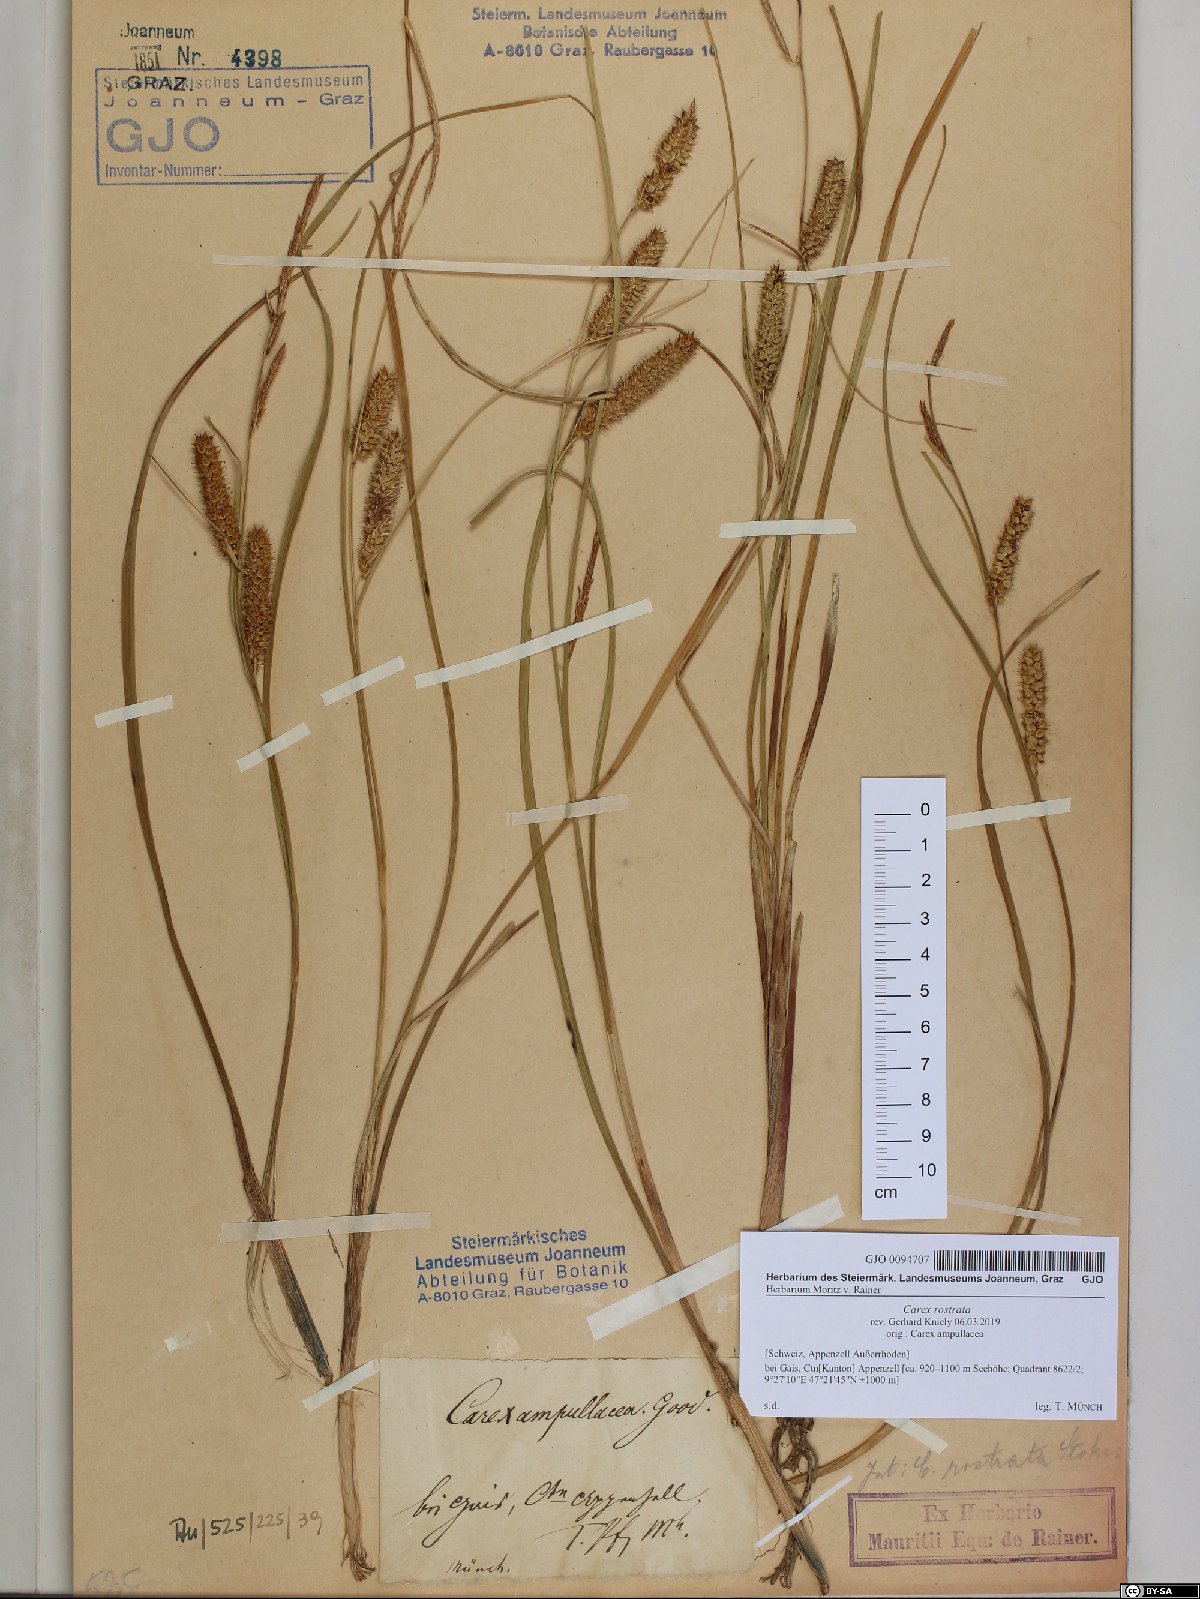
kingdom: Plantae
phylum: Tracheophyta
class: Liliopsida
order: Poales
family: Cyperaceae
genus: Carex
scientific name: Carex rostrata
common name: Bottle sedge
